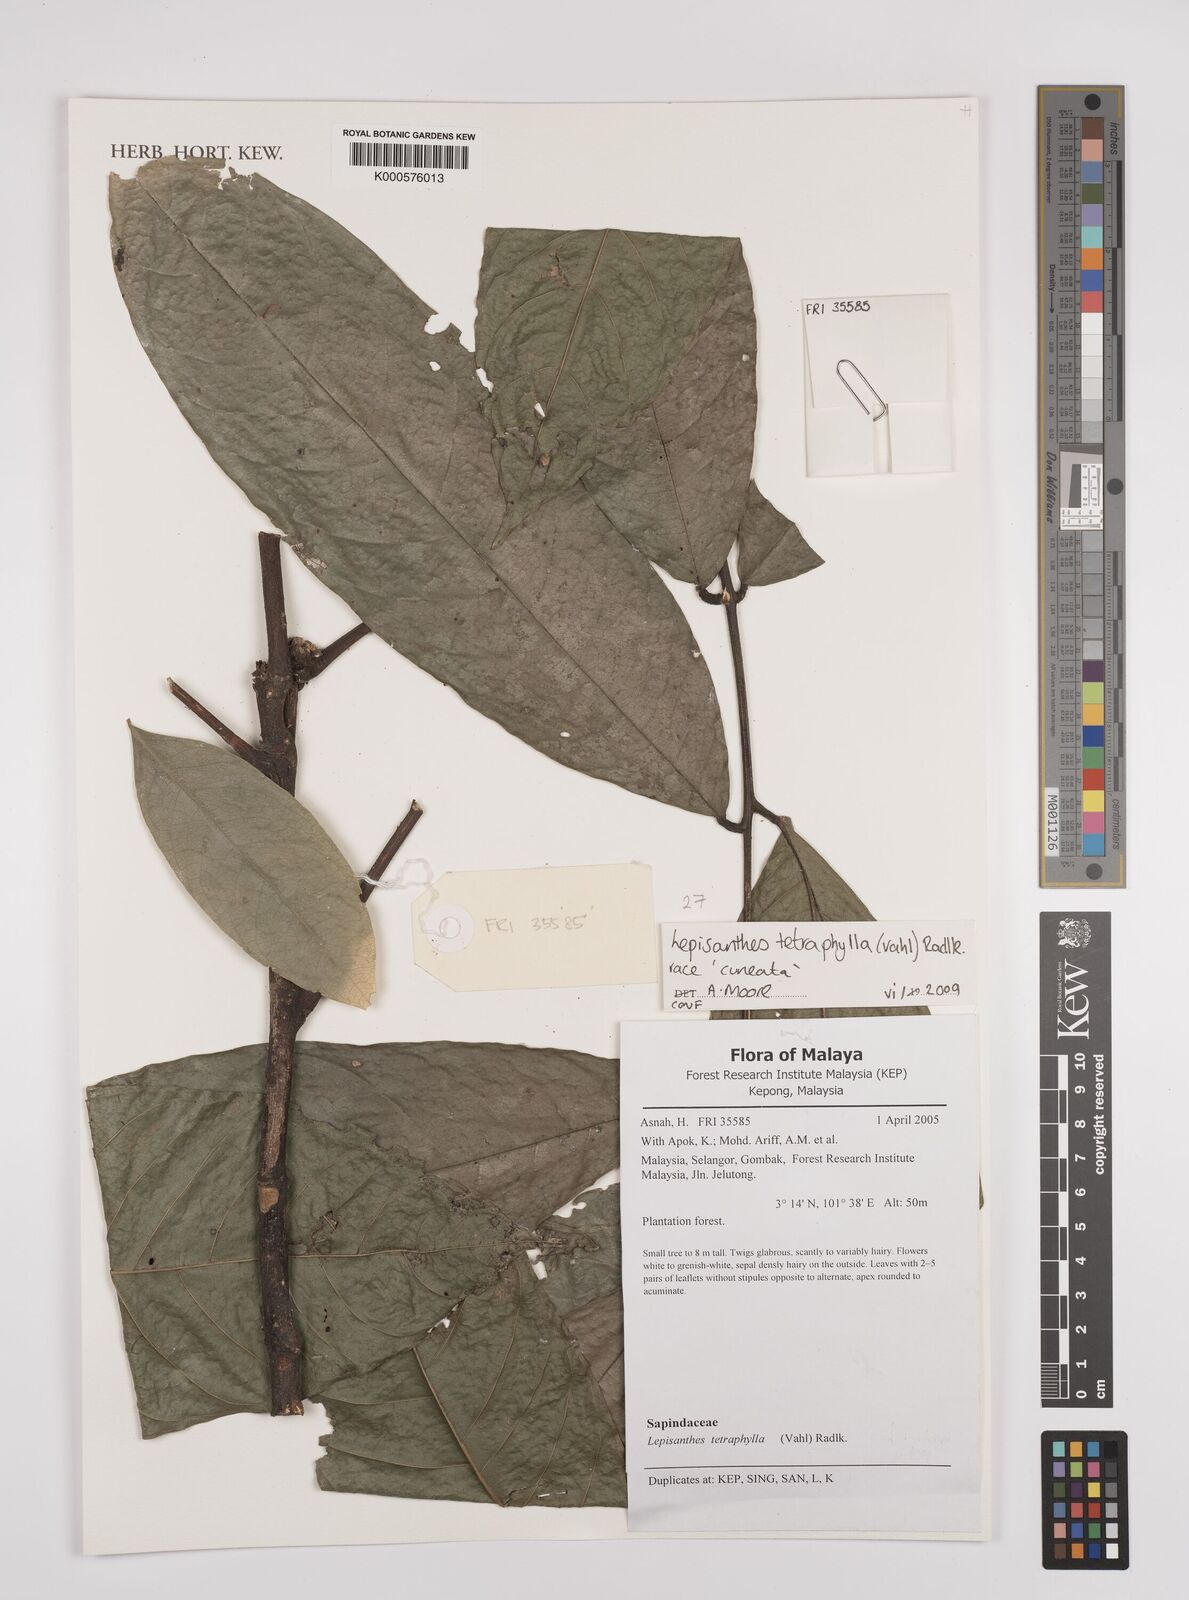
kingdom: Plantae
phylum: Tracheophyta
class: Magnoliopsida
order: Sapindales
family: Sapindaceae
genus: Lepisanthes
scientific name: Lepisanthes tetraphylla
